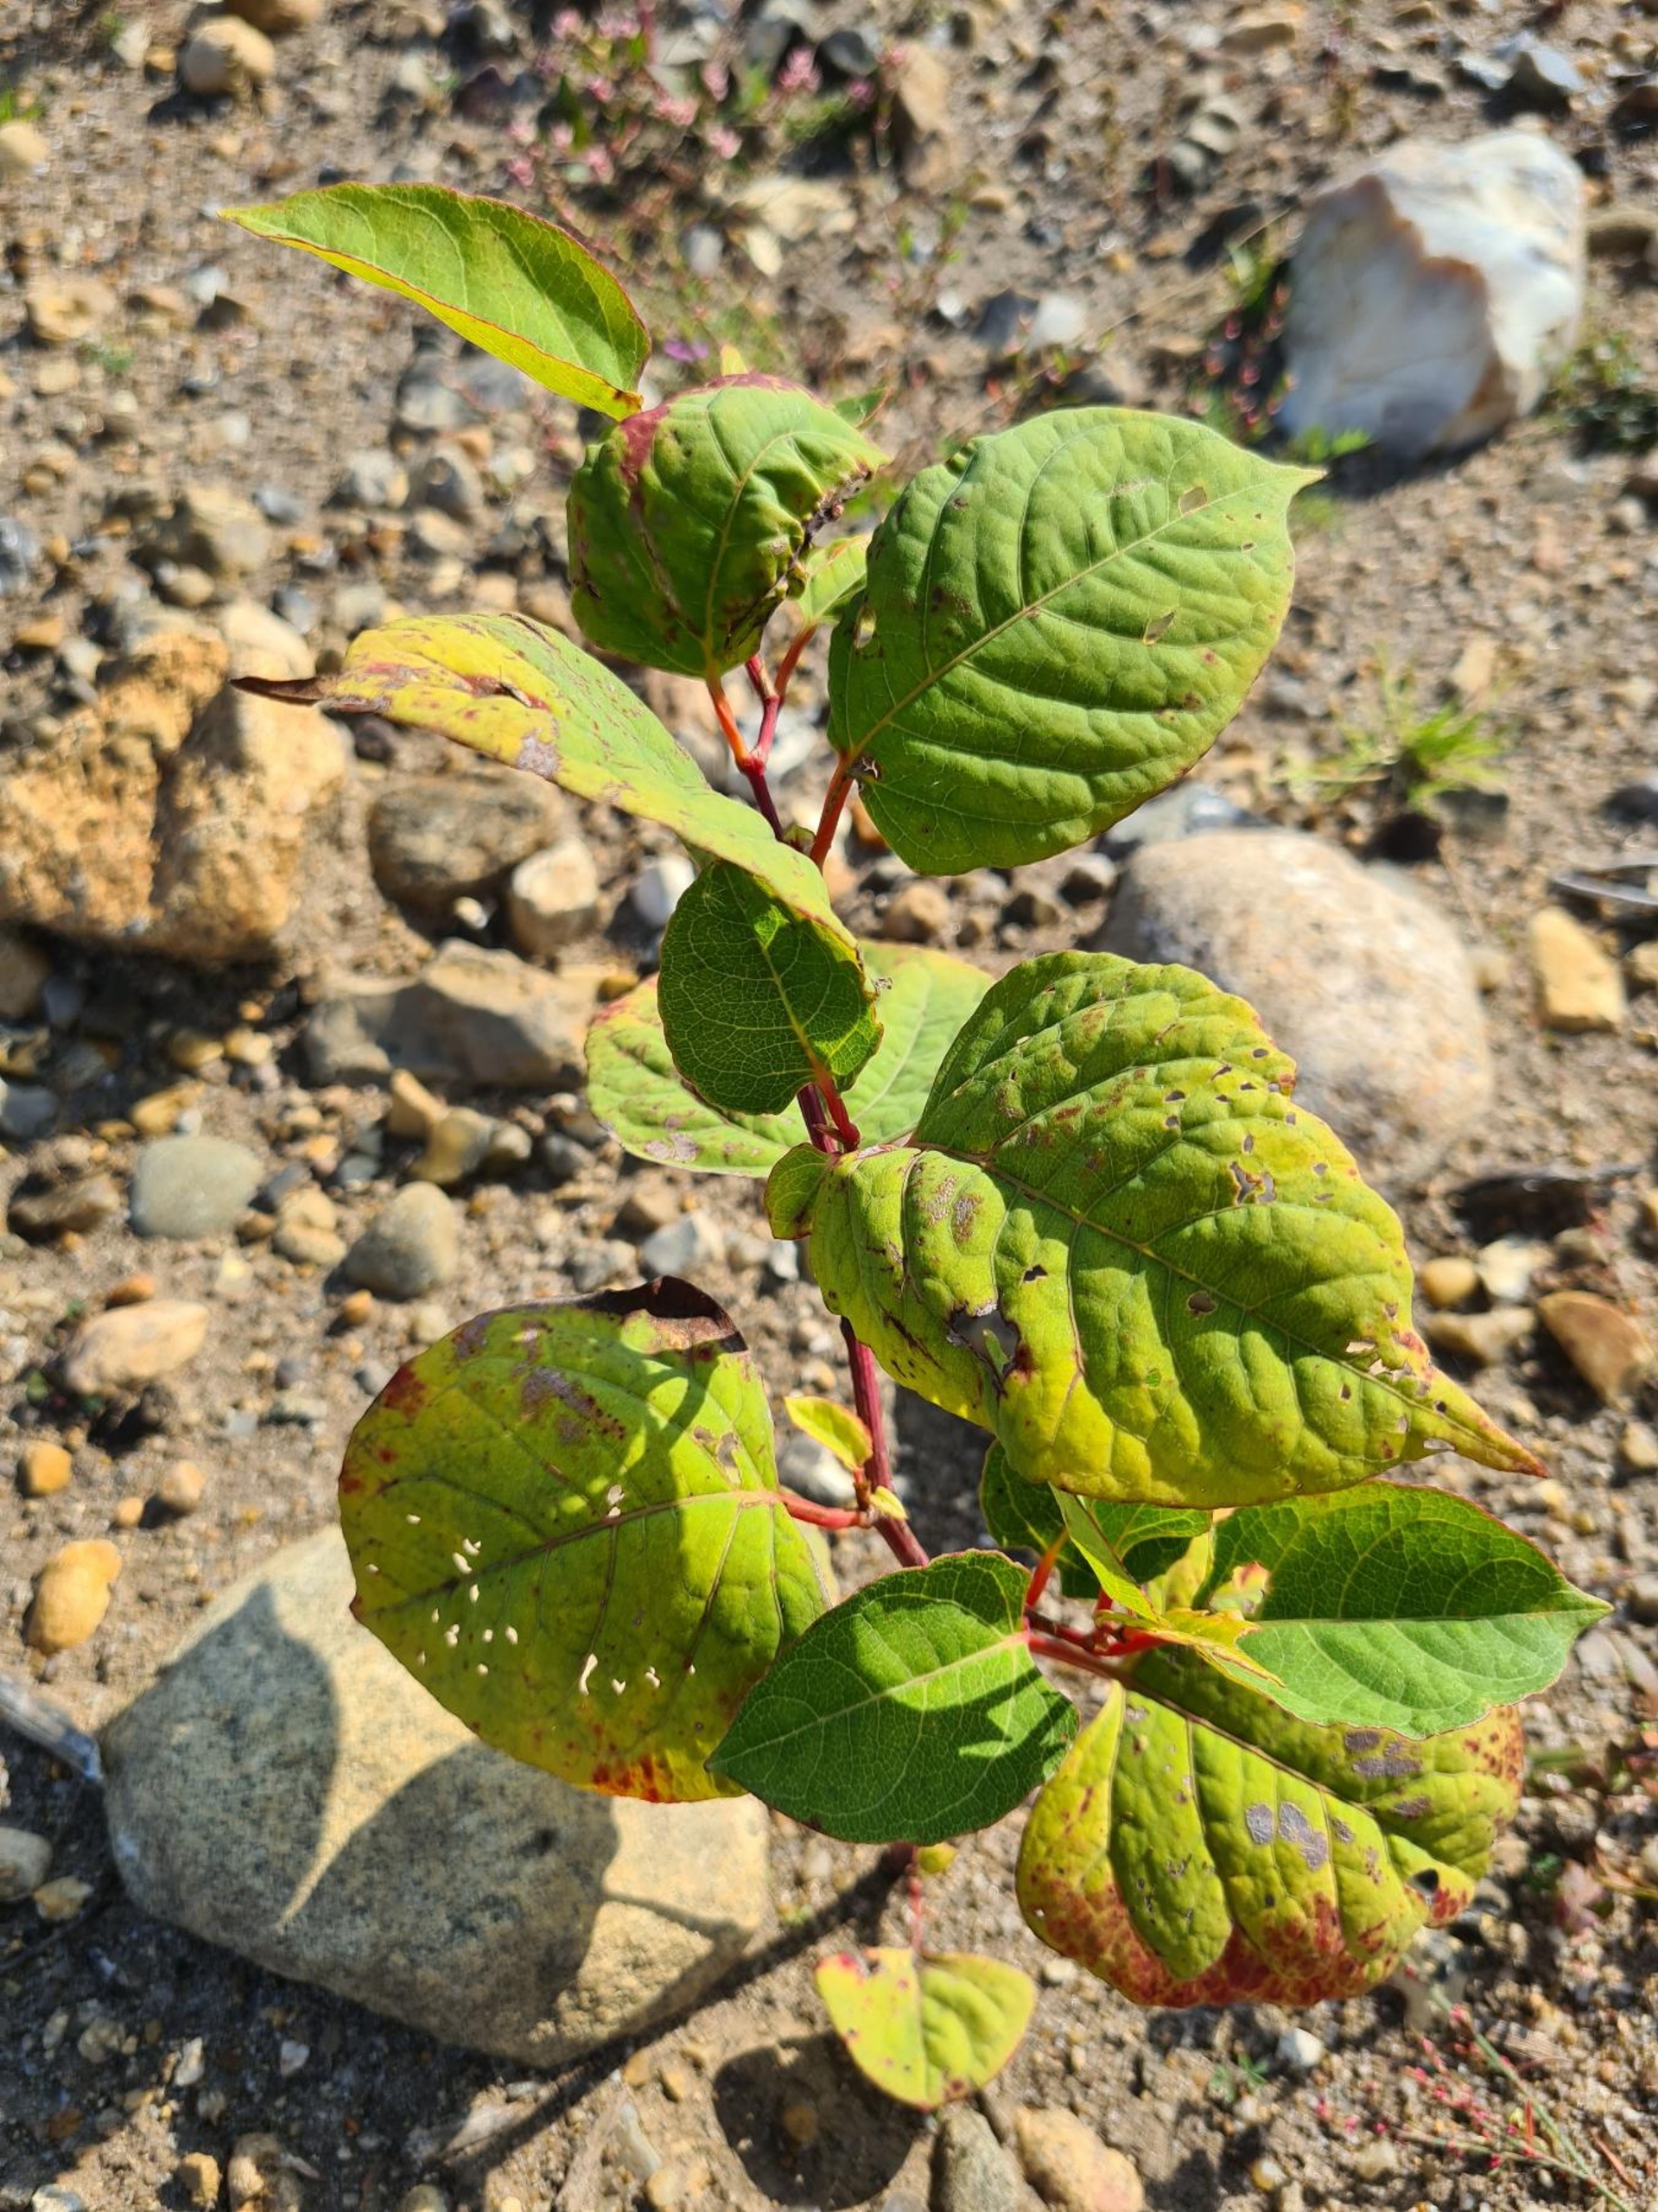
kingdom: Plantae
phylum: Tracheophyta
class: Magnoliopsida
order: Caryophyllales
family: Polygonaceae
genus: Reynoutria
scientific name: Reynoutria japonica
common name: Japan-pileurt
